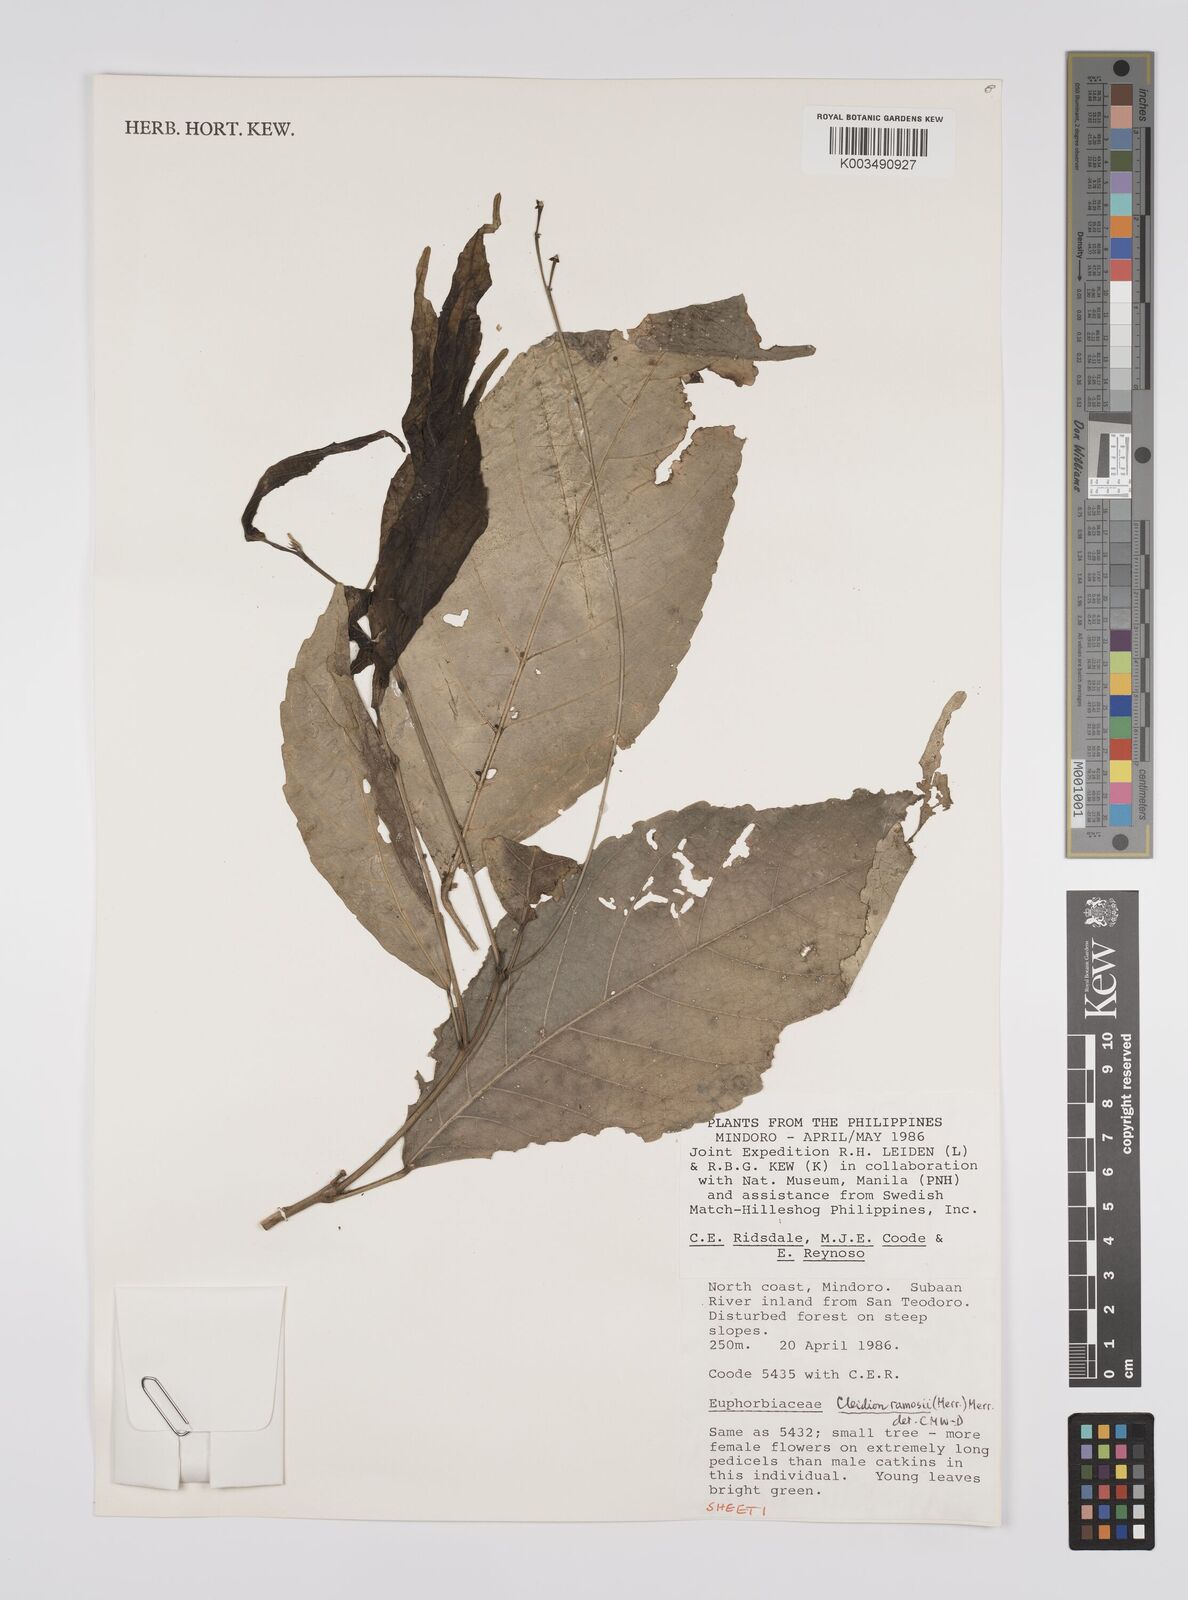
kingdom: Plantae
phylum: Tracheophyta
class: Magnoliopsida
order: Malpighiales
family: Euphorbiaceae
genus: Cleidion
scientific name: Cleidion ramosii
